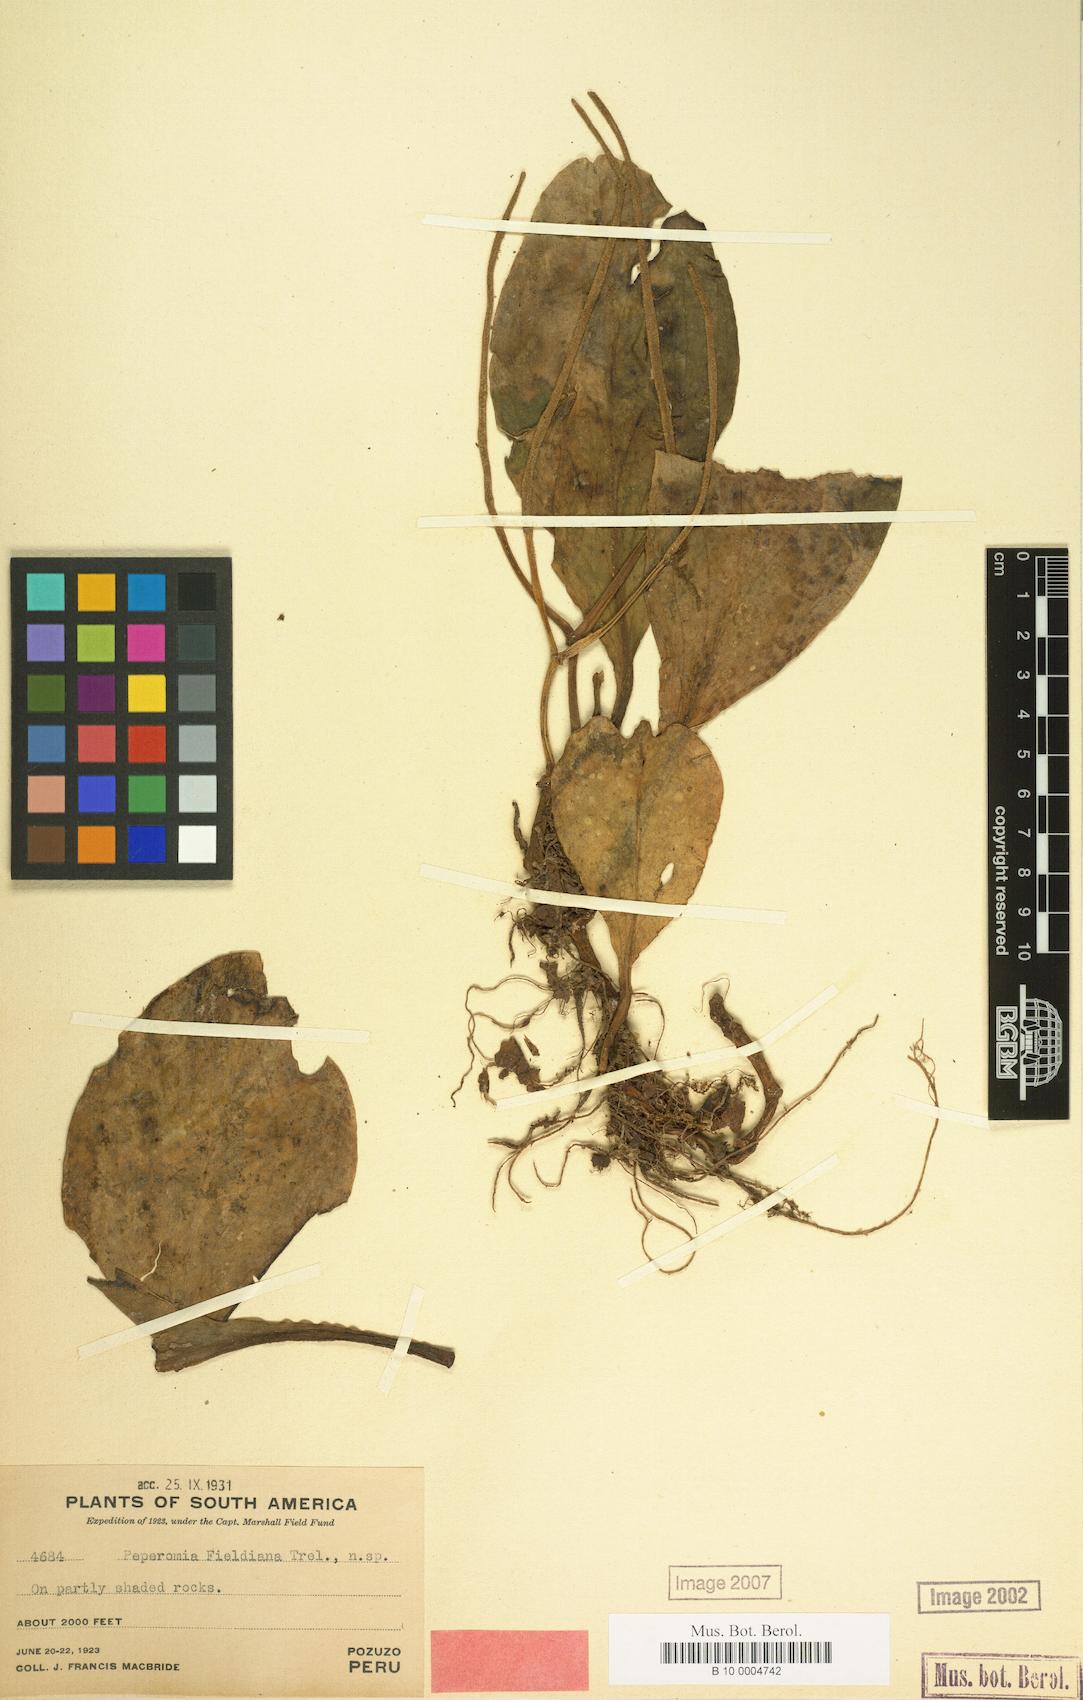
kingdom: Plantae
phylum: Tracheophyta
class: Magnoliopsida
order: Piperales
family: Piperaceae
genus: Peperomia
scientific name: Peperomia obtusifolia
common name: Baby rubberplant
